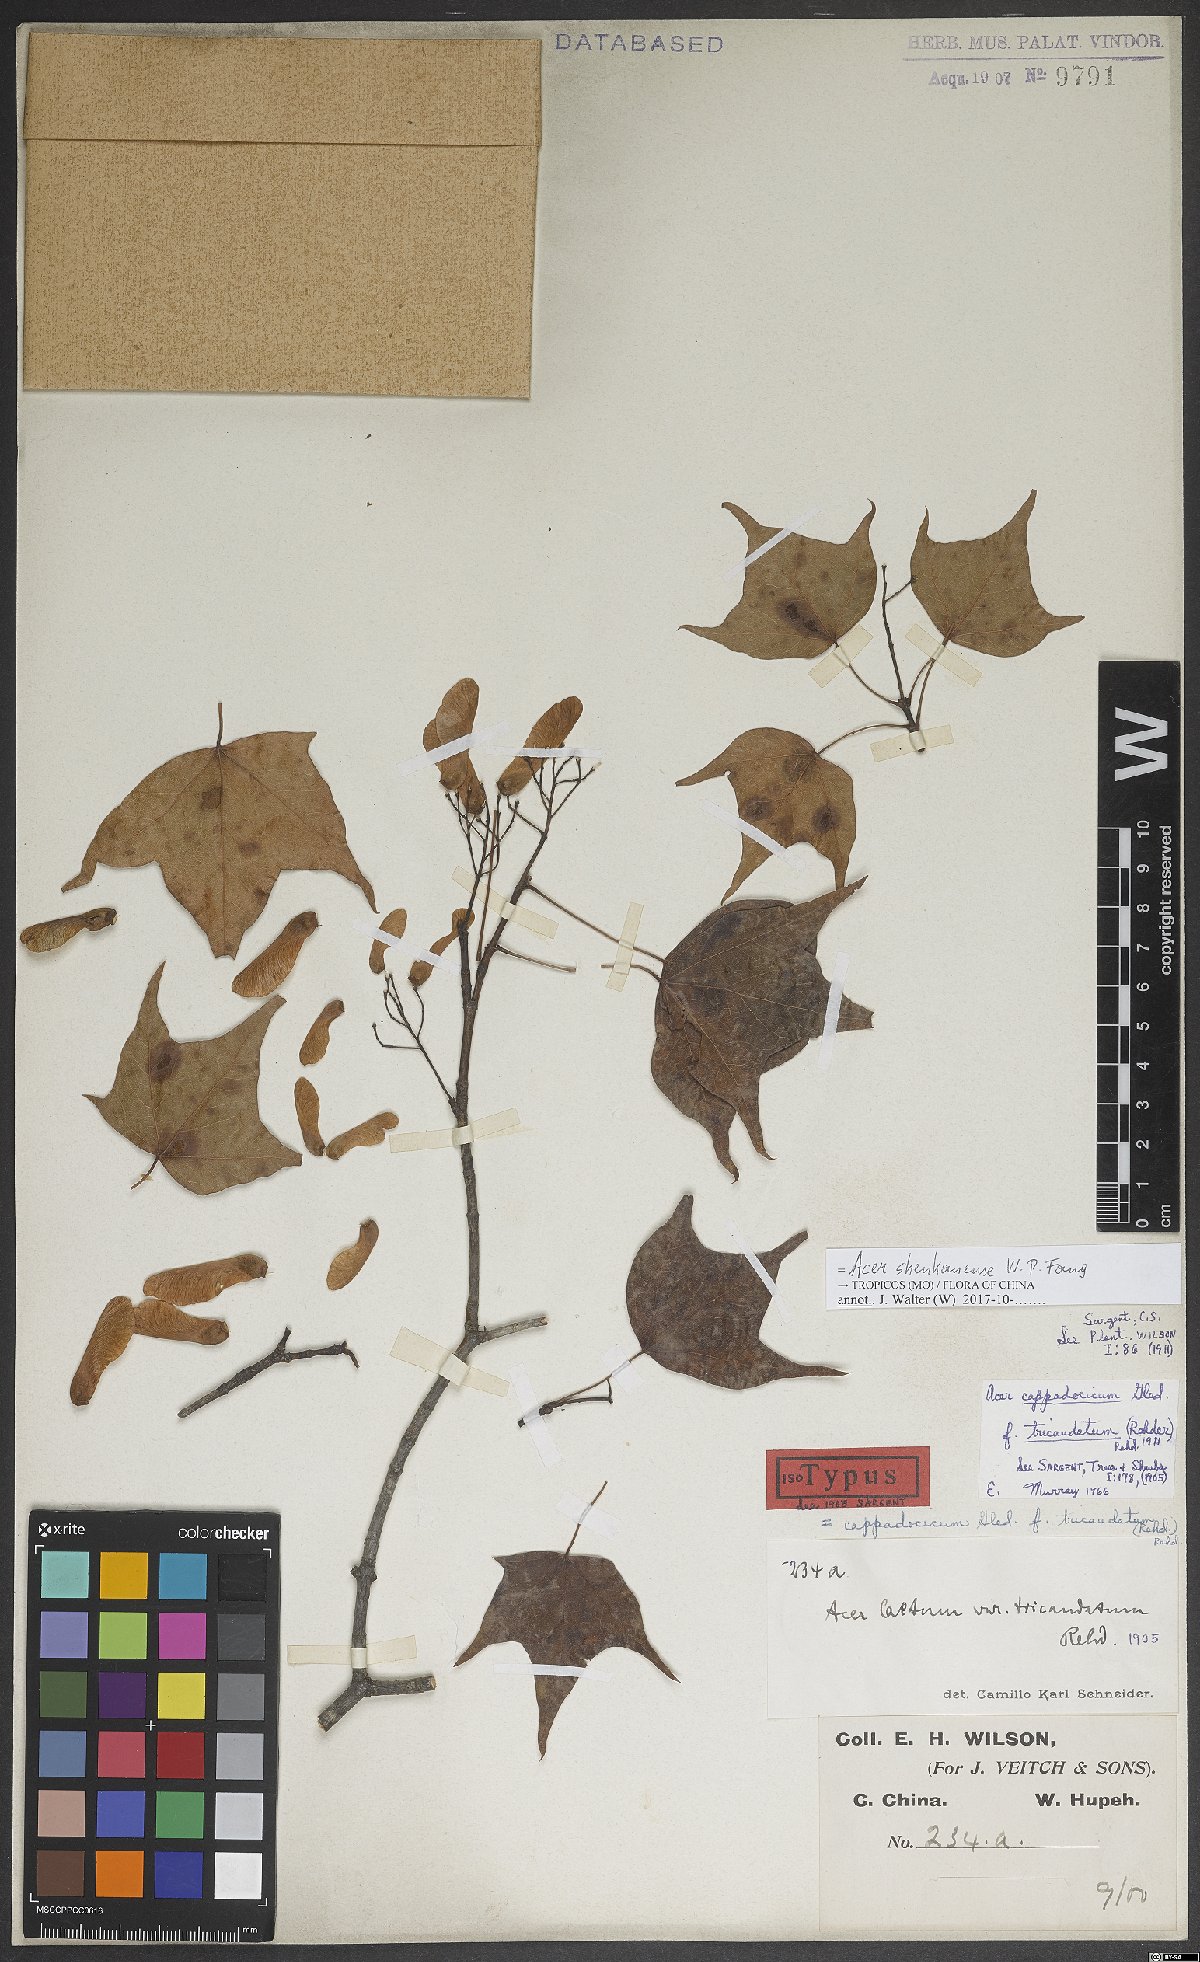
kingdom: Plantae
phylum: Tracheophyta
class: Magnoliopsida
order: Sapindales
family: Sapindaceae
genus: Acer
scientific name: Acer longipes
